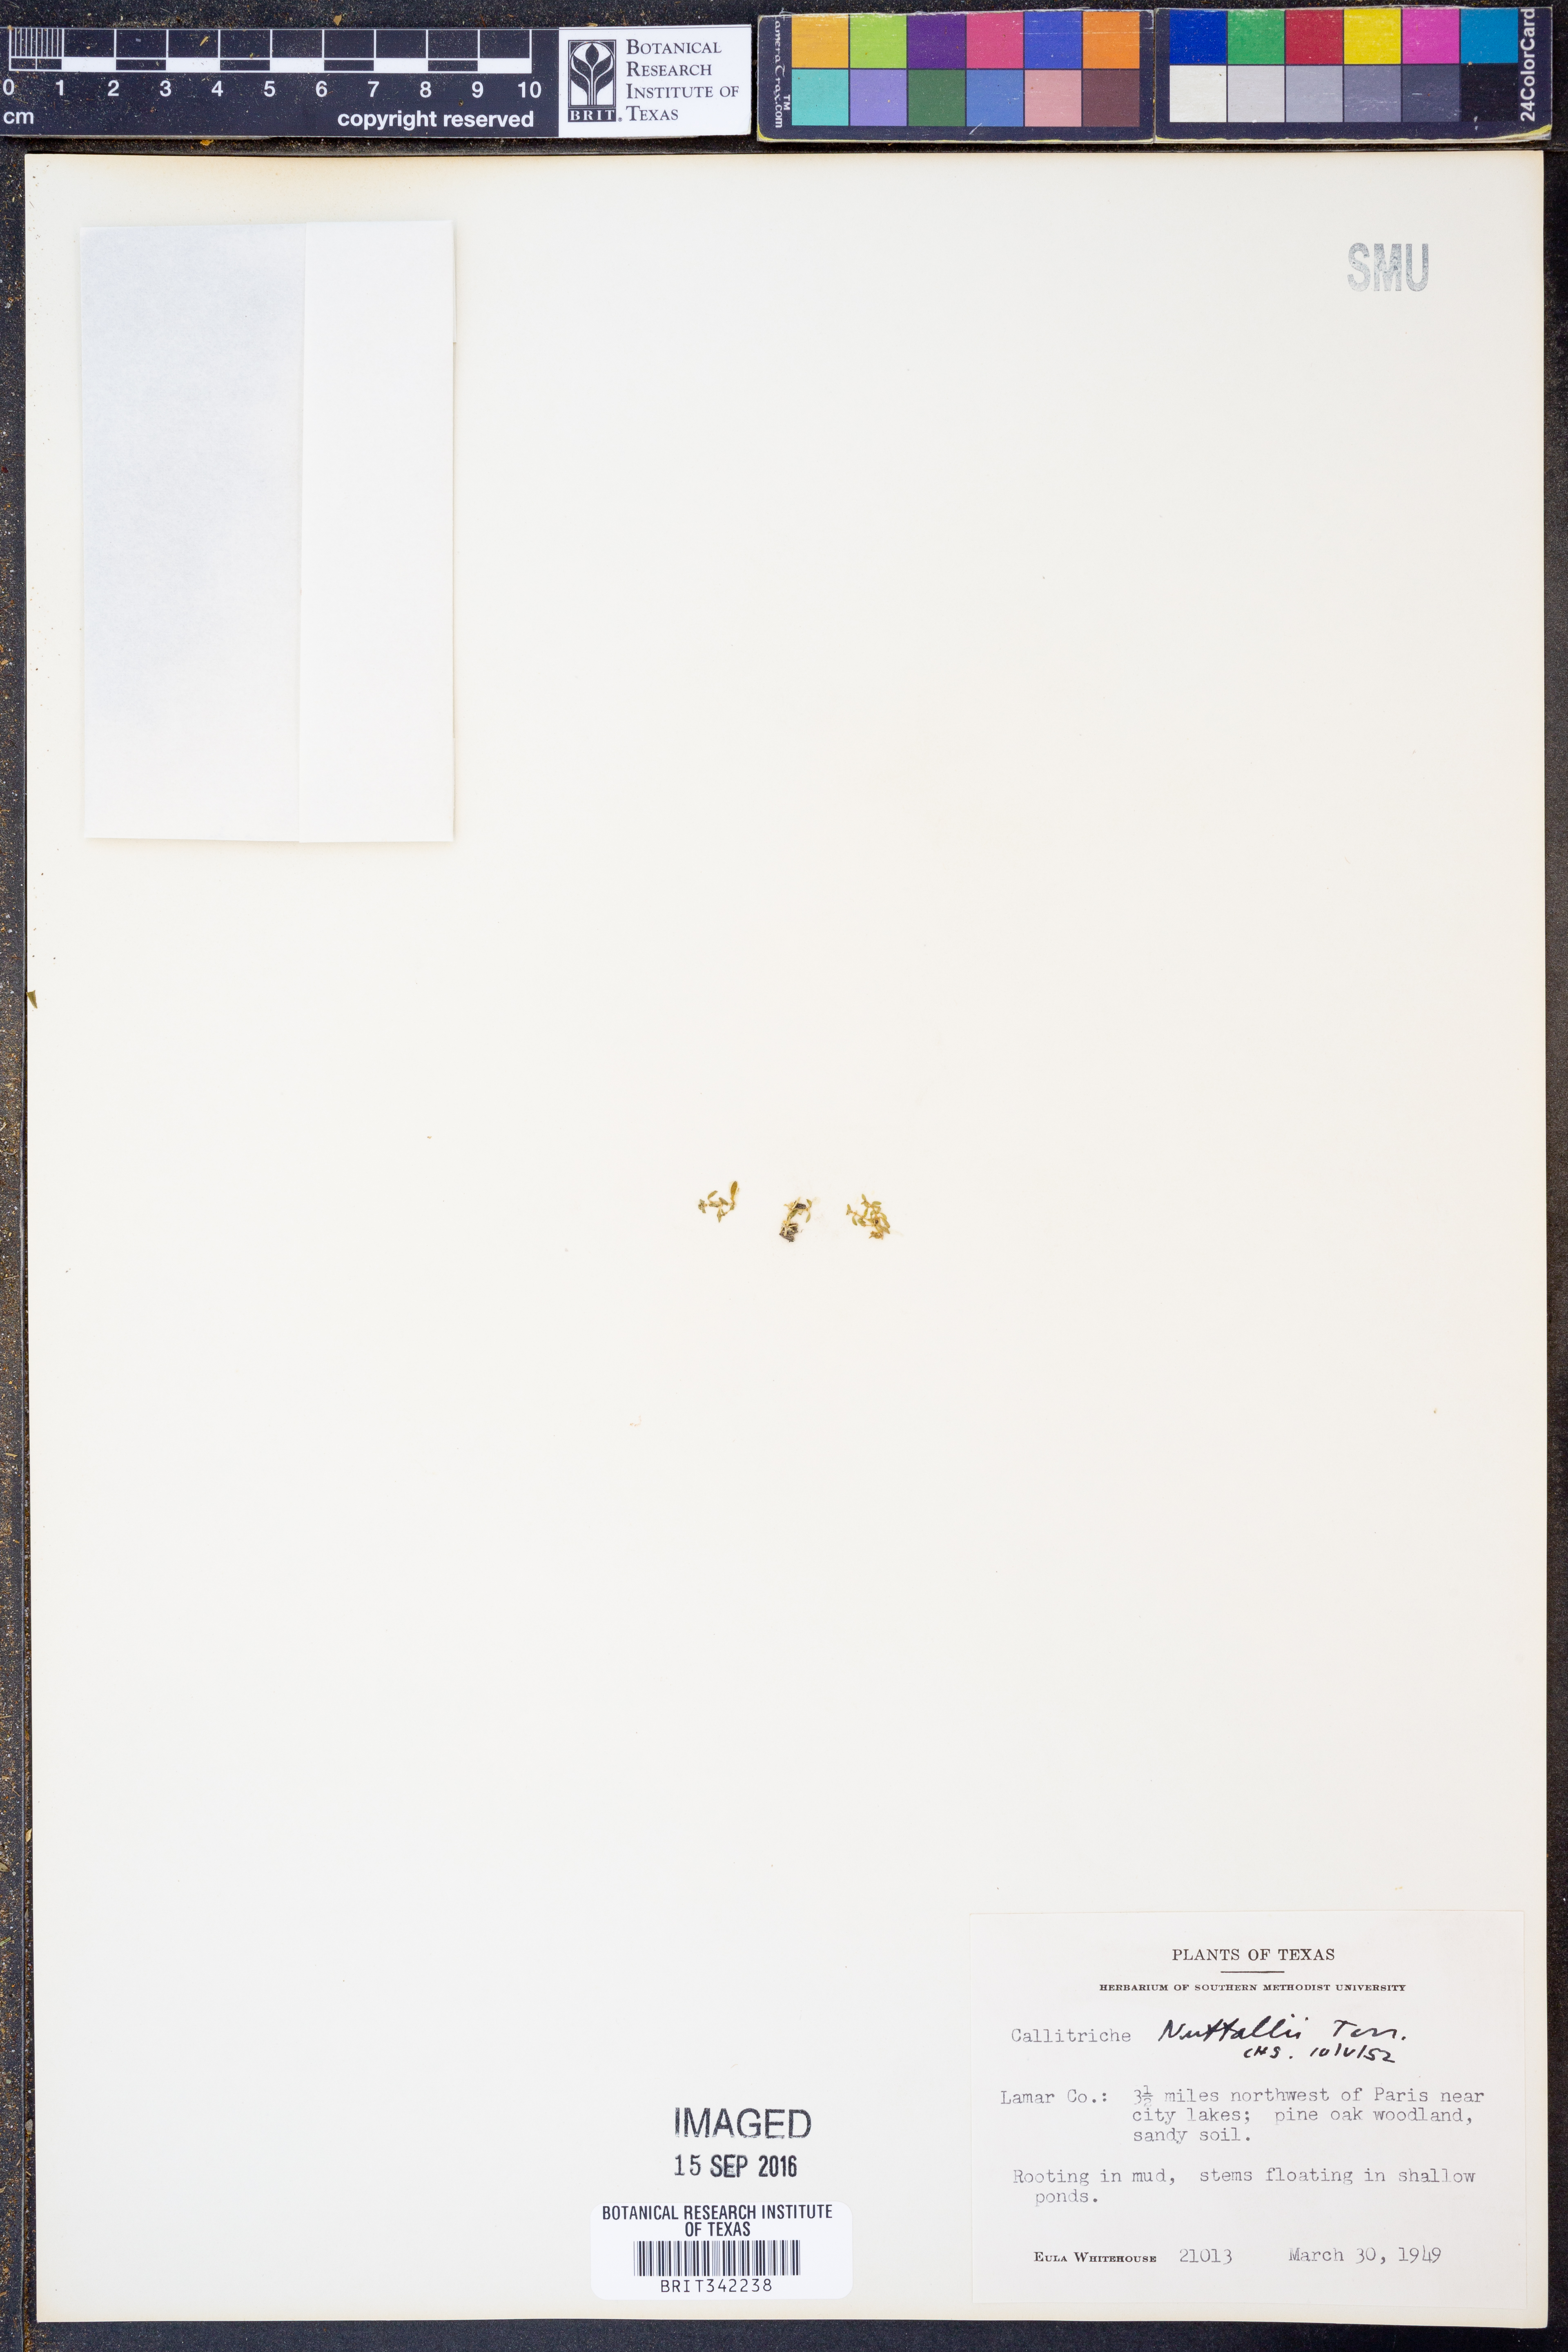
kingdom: Plantae
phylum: Tracheophyta
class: Magnoliopsida
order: Lamiales
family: Plantaginaceae
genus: Callitriche
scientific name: Callitriche pedunculosa
